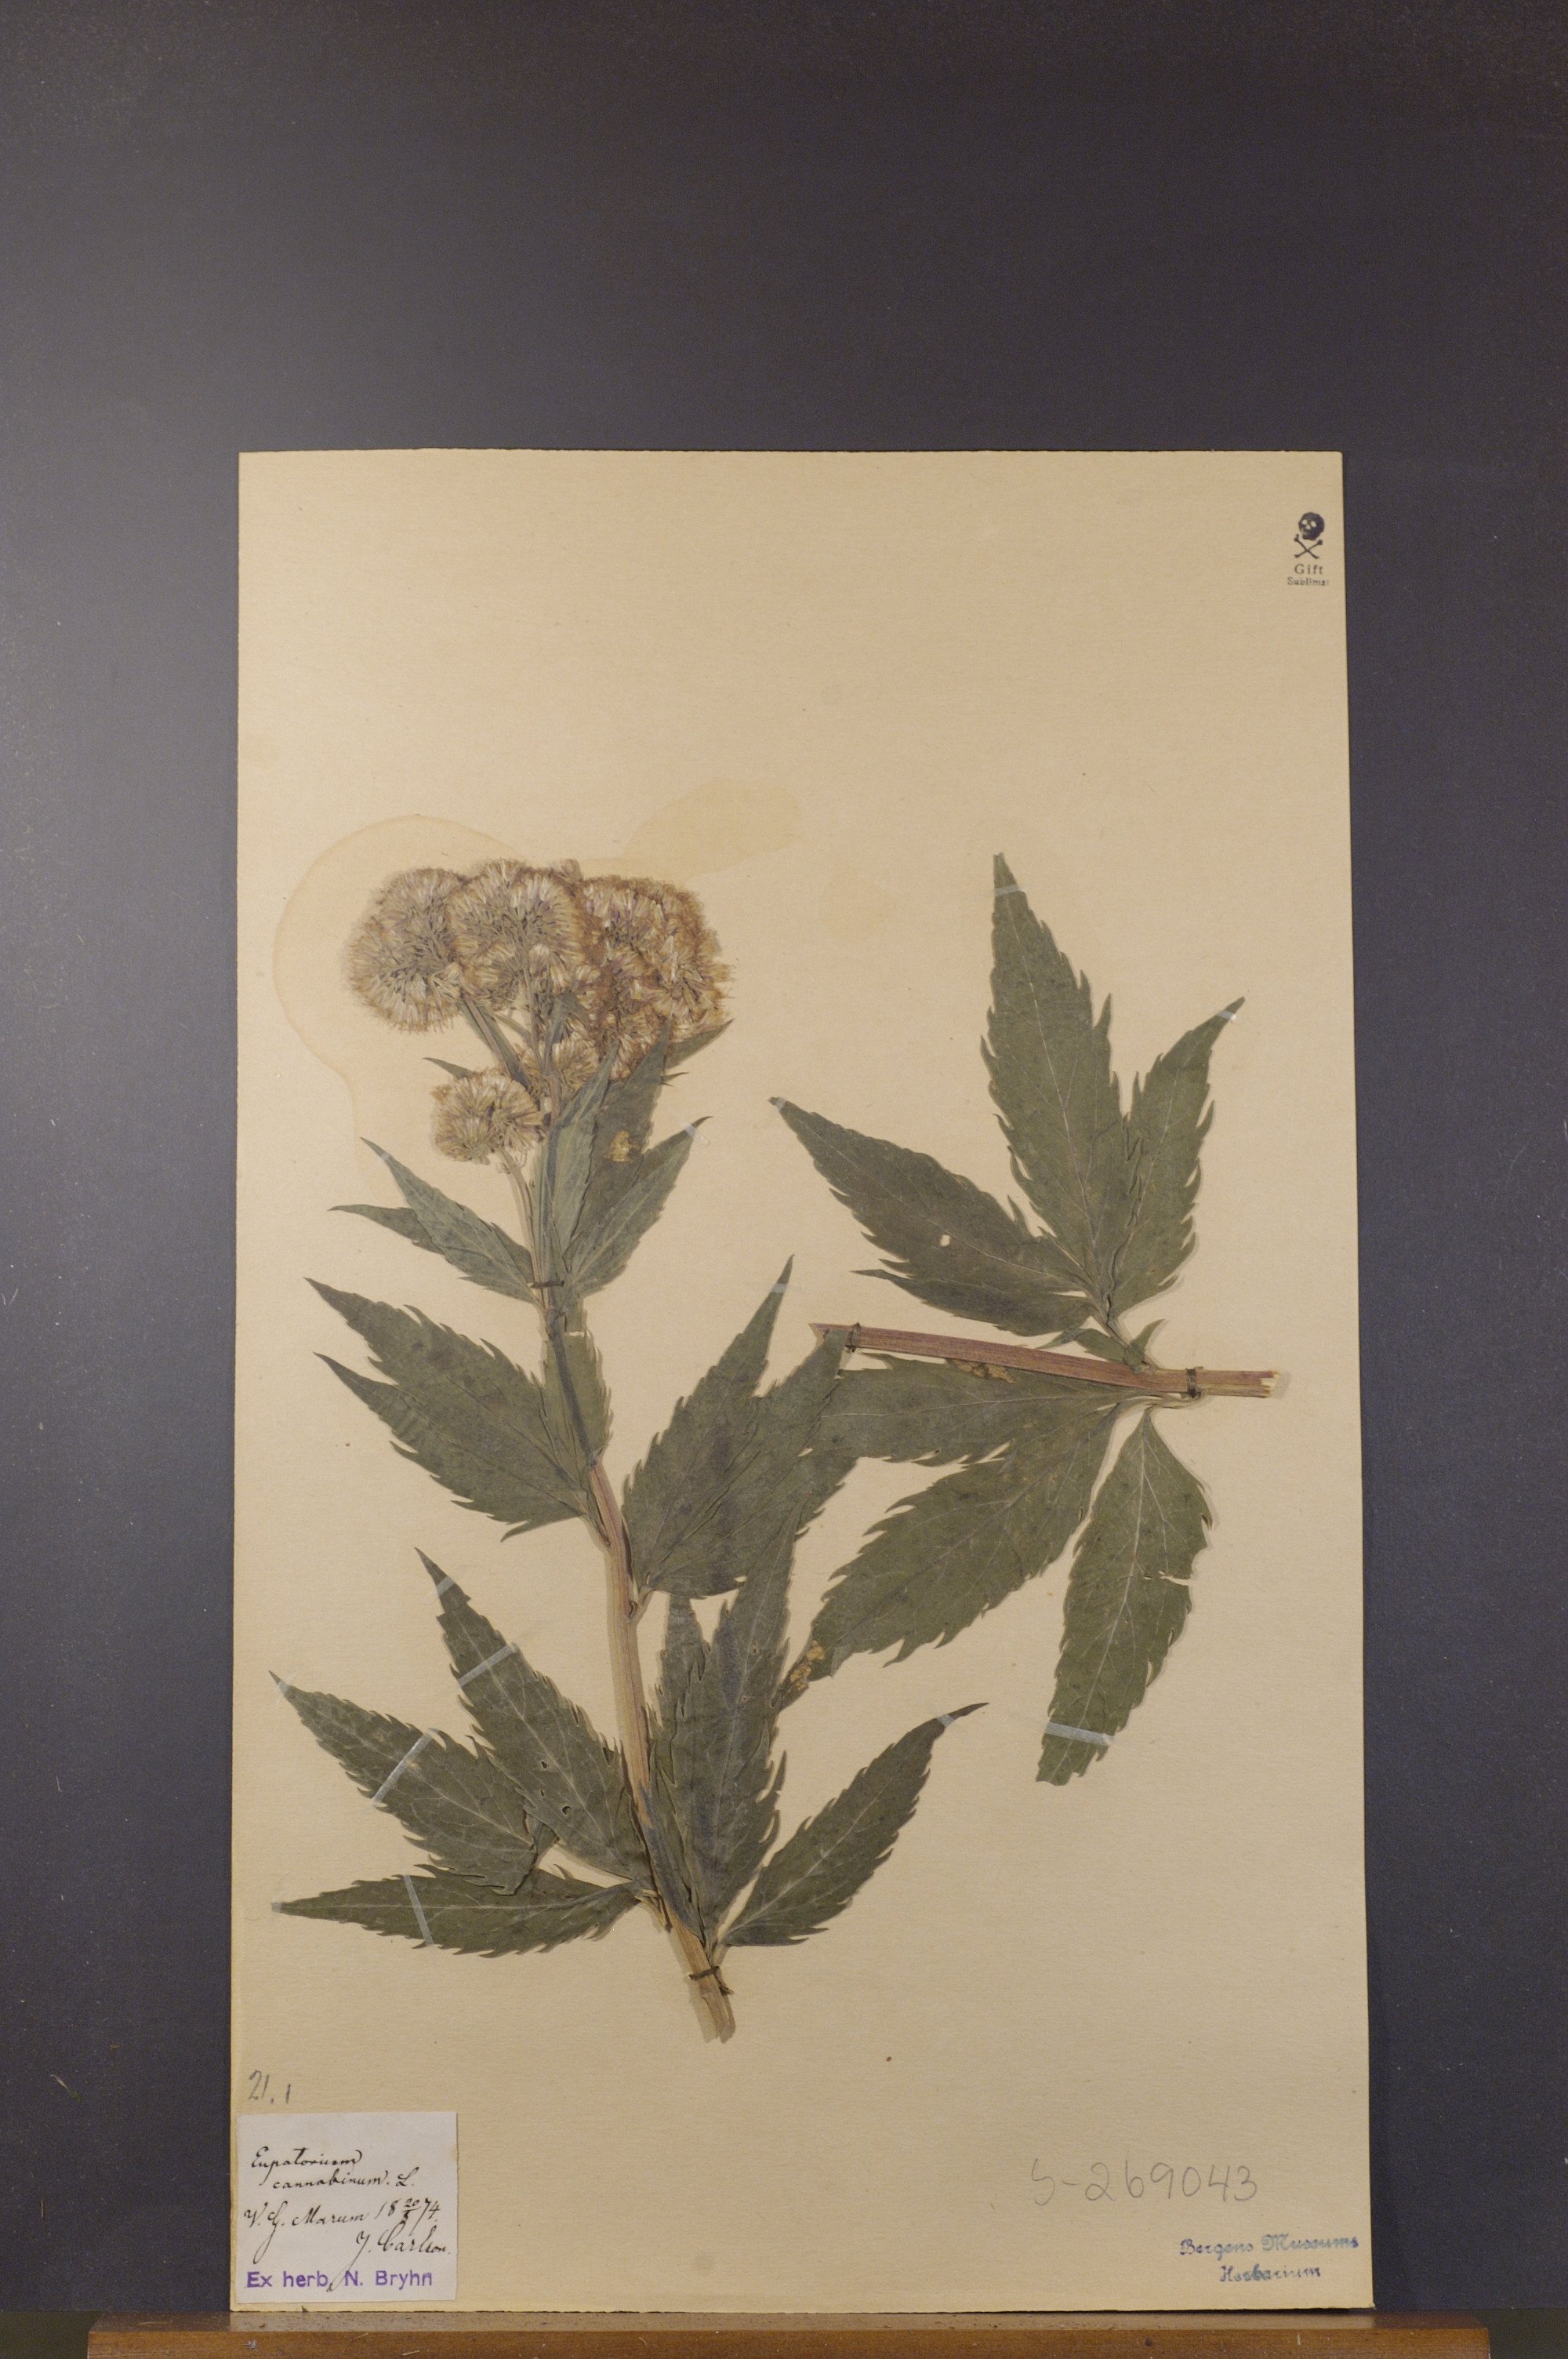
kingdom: Plantae
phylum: Tracheophyta
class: Magnoliopsida
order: Asterales
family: Asteraceae
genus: Eupatorium
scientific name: Eupatorium cannabinum
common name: Hemp-agrimony
